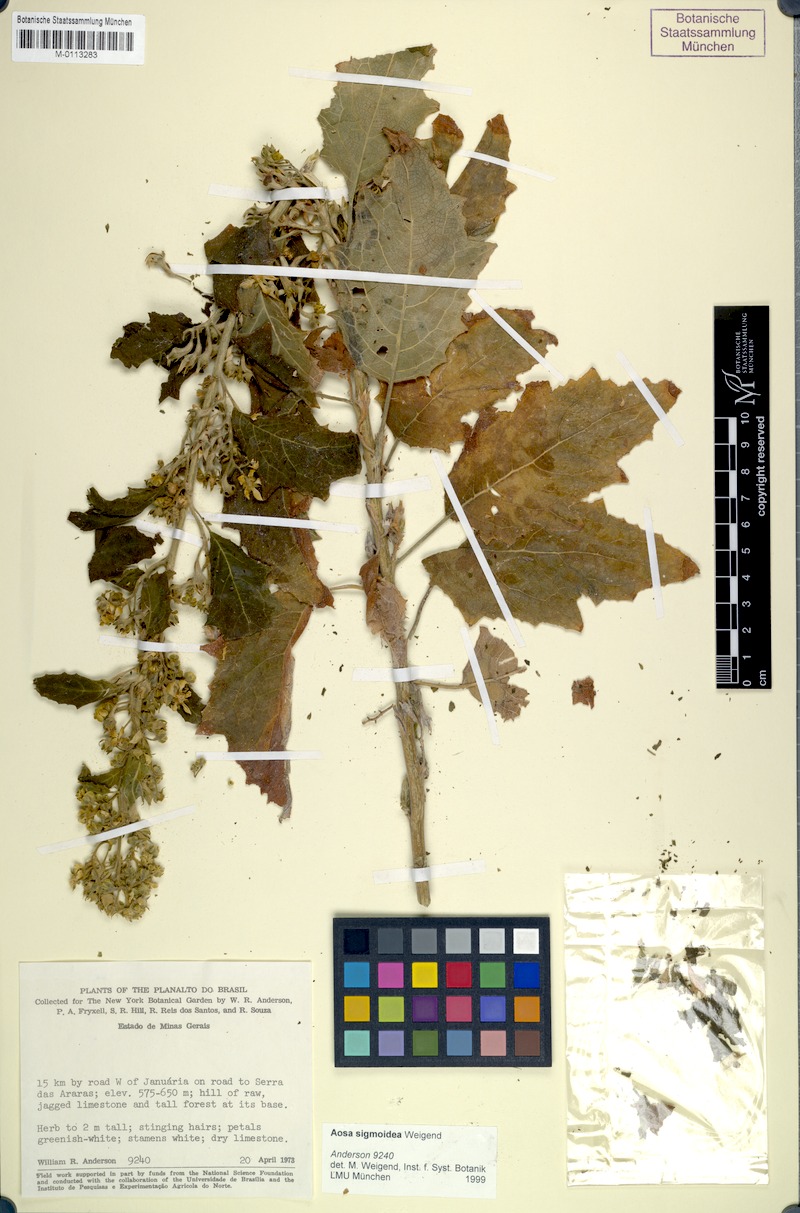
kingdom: Plantae
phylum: Tracheophyta
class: Magnoliopsida
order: Cornales
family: Loasaceae
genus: Aosa
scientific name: Aosa sigmoidea
